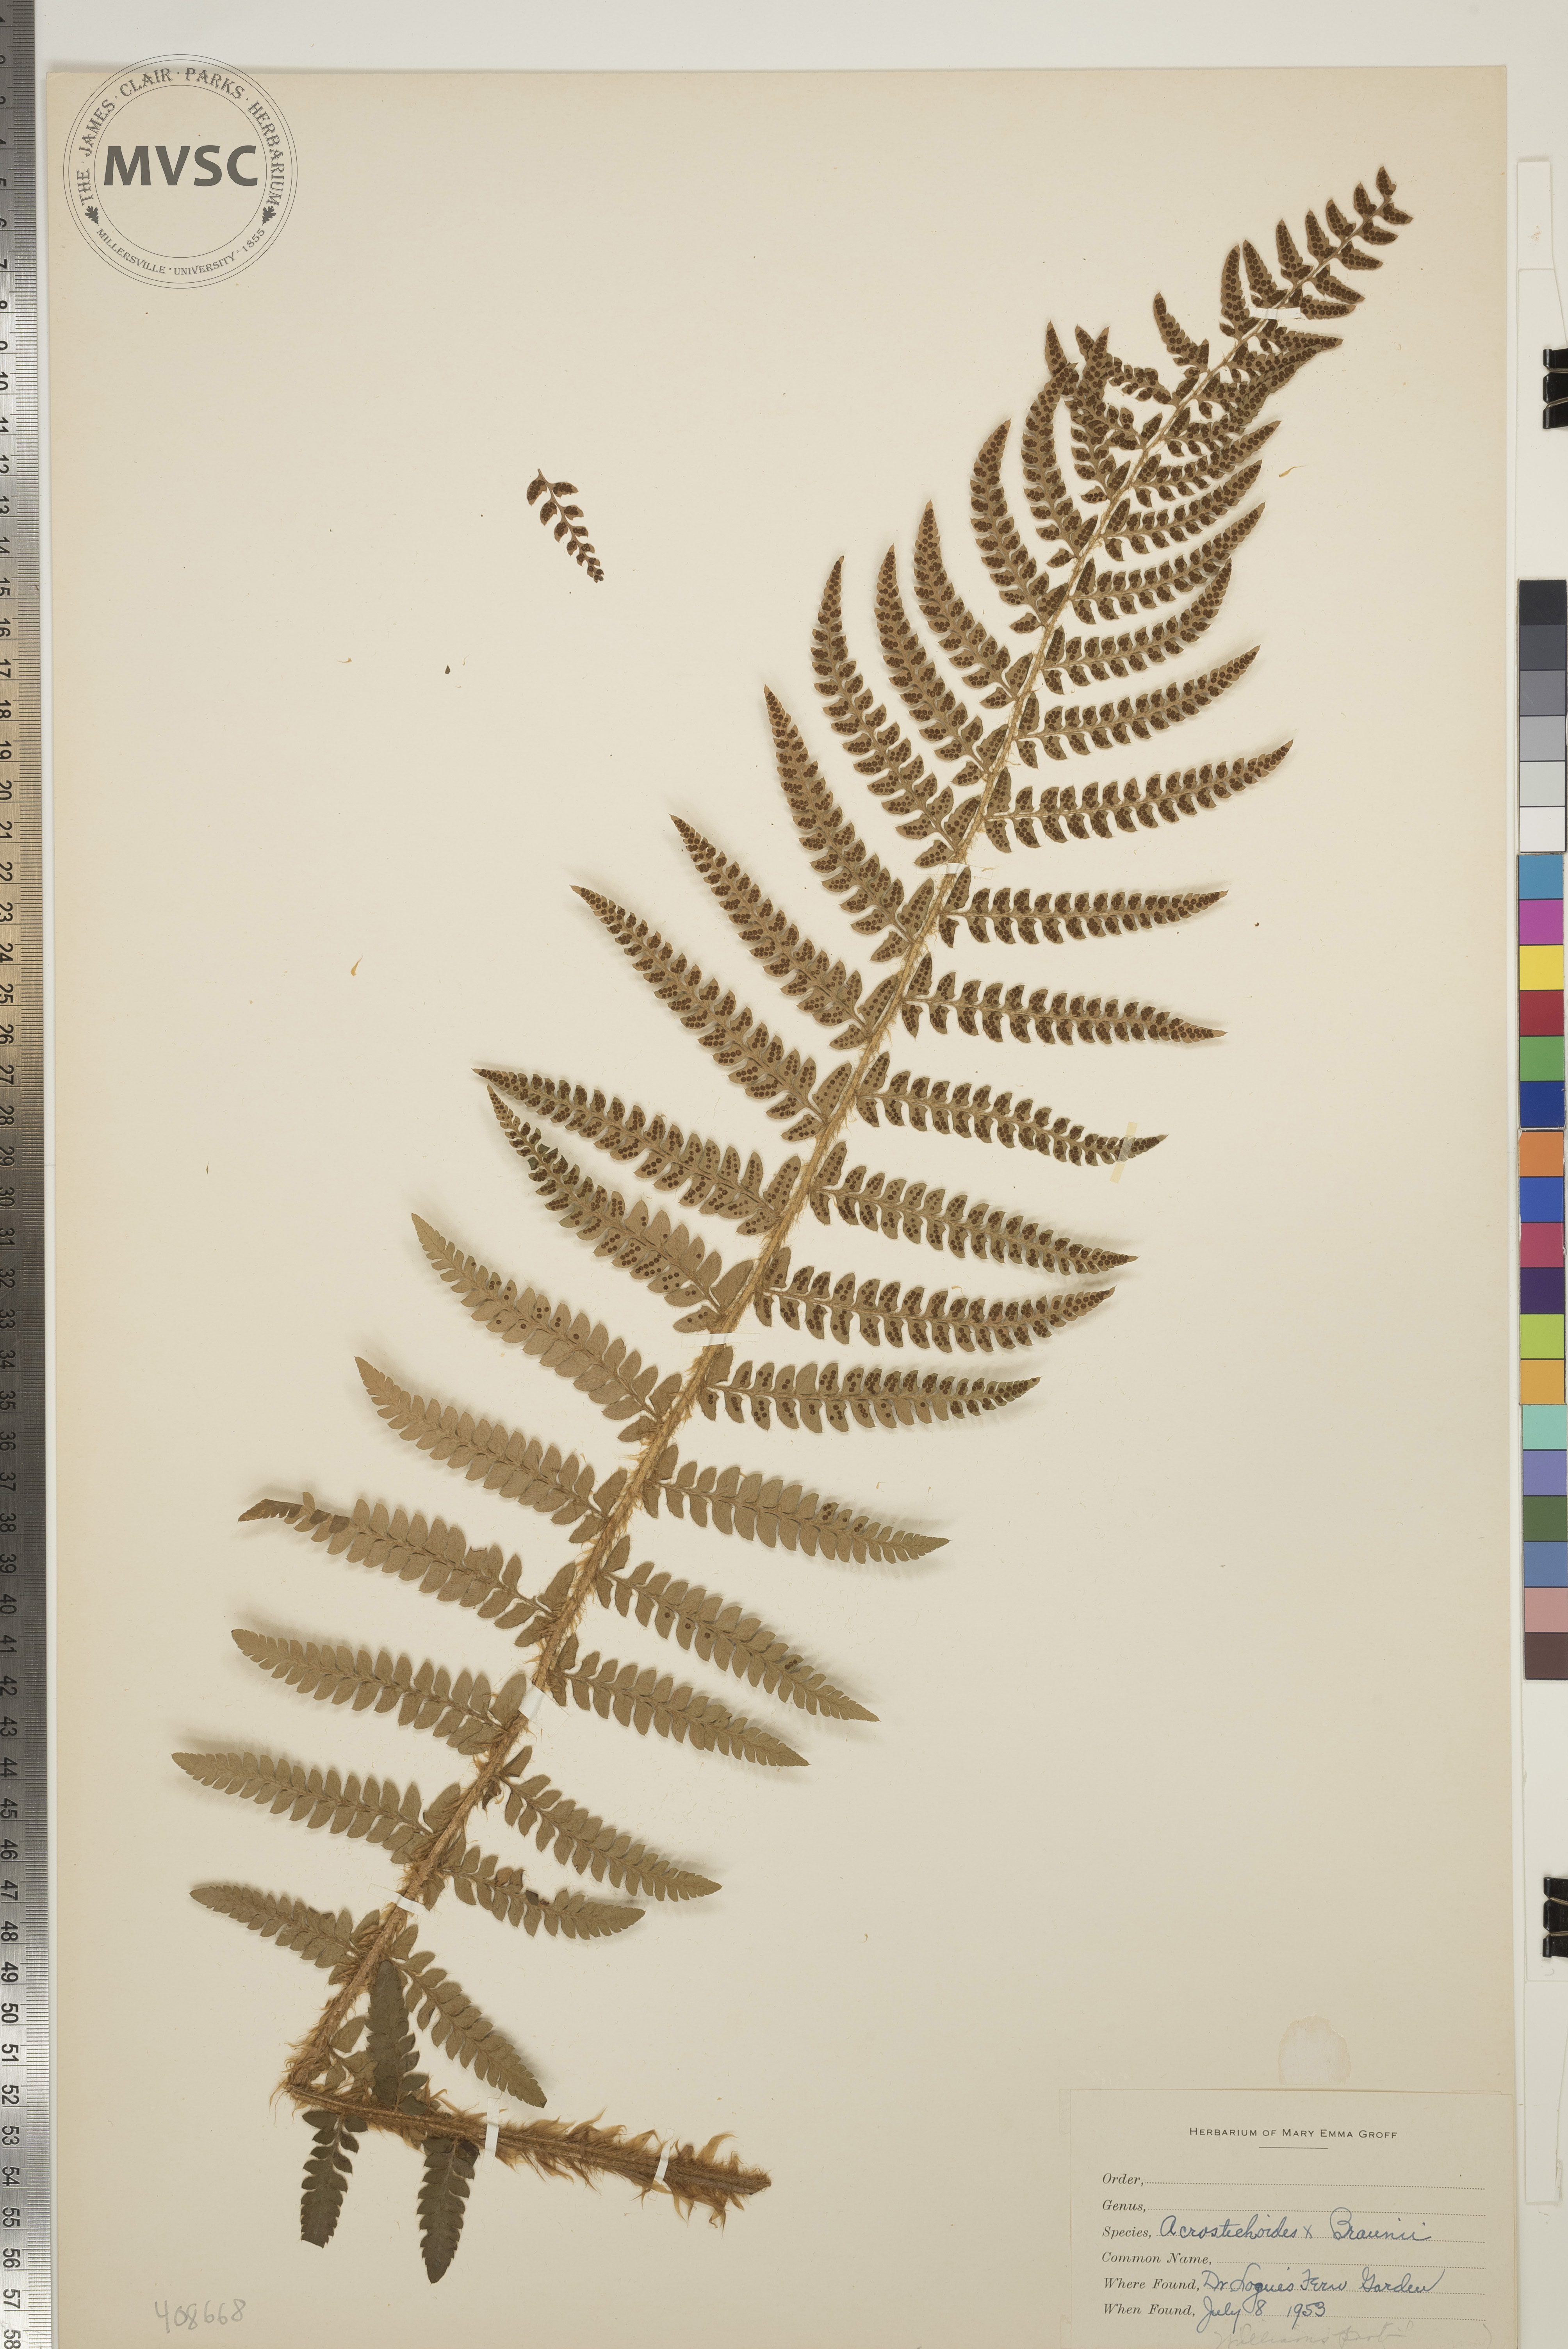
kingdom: Plantae
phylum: Tracheophyta
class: Polypodiopsida
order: Polypodiales
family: Dryopteridaceae
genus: Polystichum
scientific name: Polystichum
